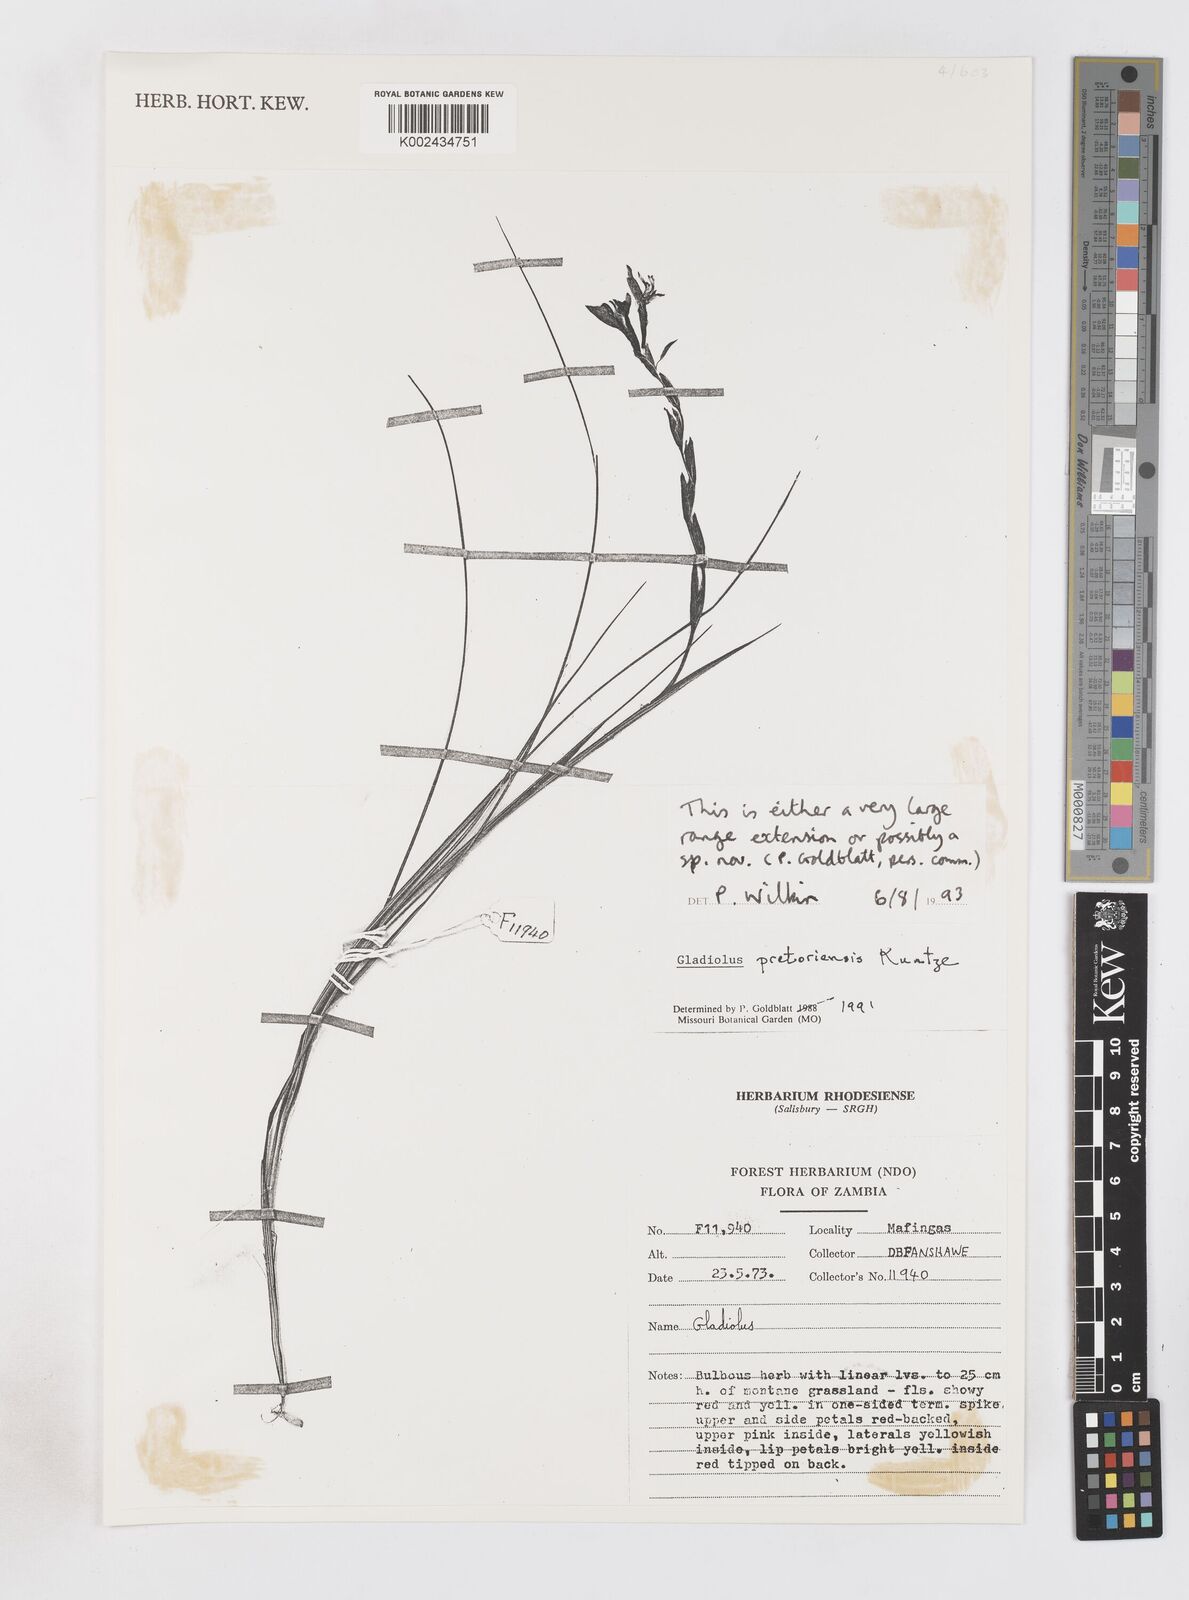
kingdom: Plantae
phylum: Tracheophyta
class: Liliopsida
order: Asparagales
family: Iridaceae
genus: Gladiolus
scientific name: Gladiolus pretoriensis
